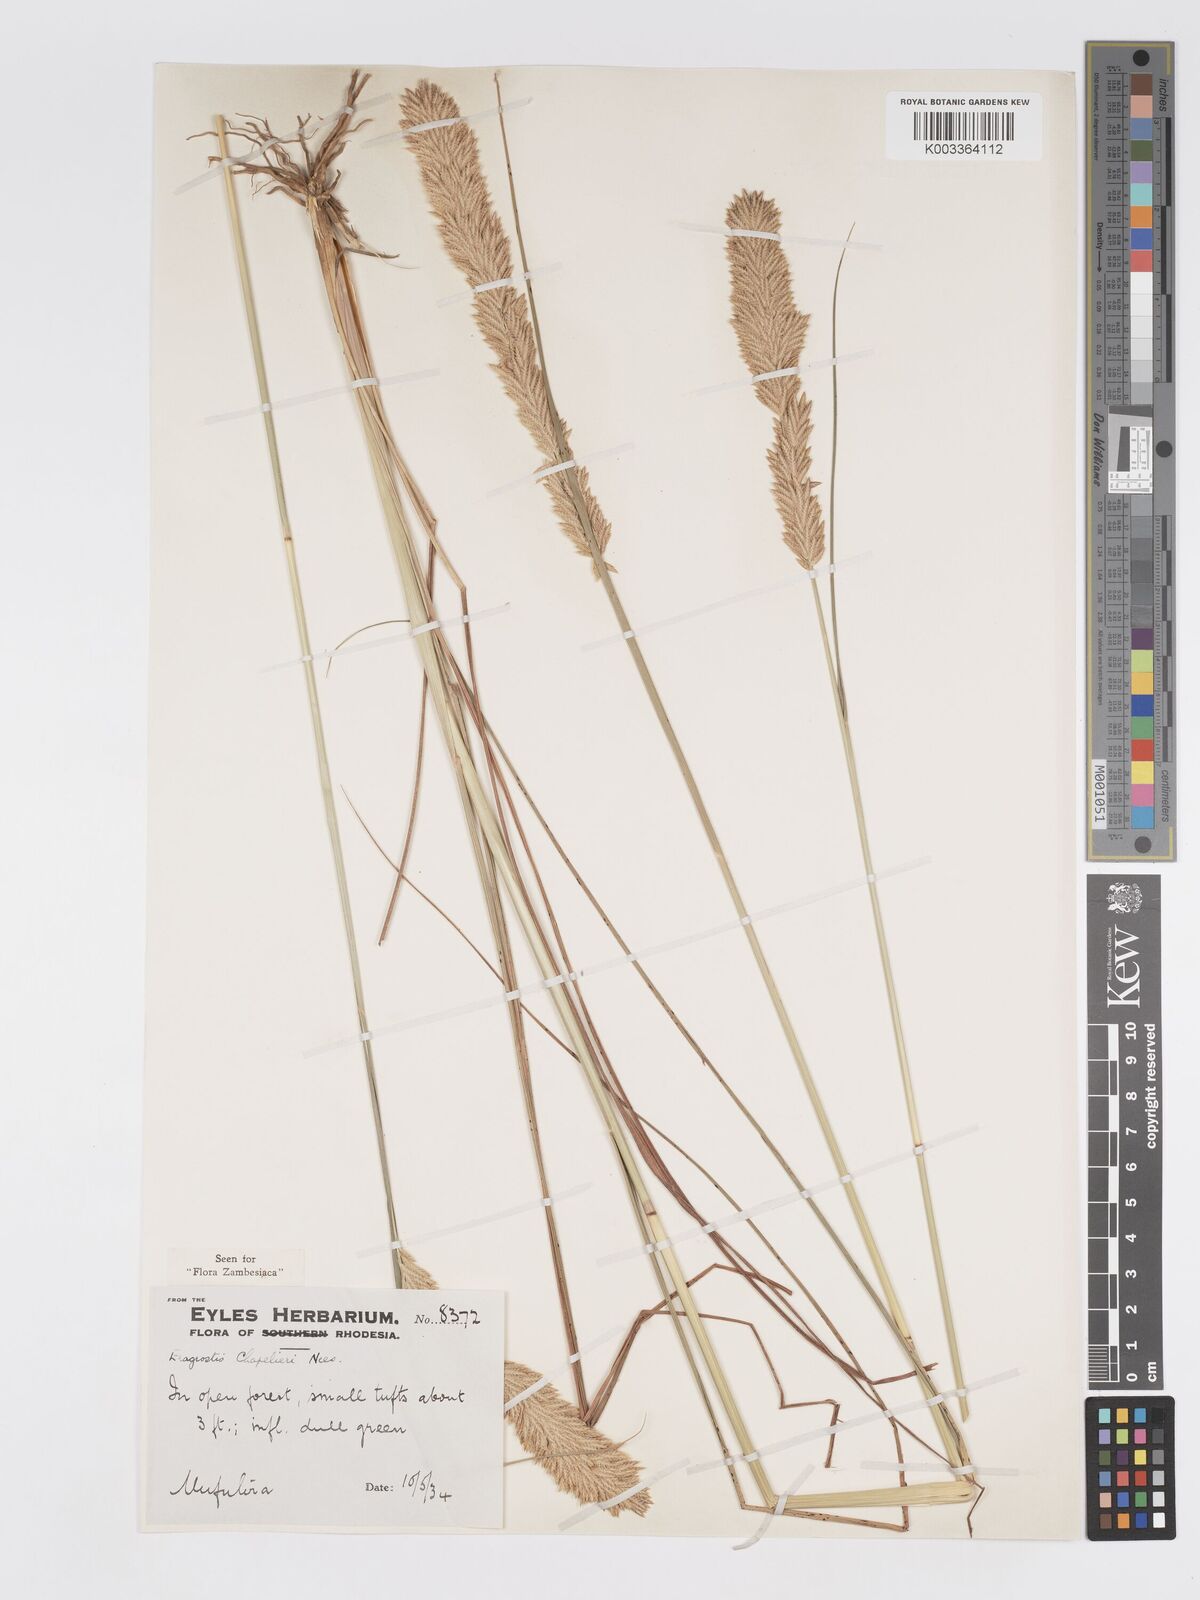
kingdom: Plantae
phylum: Tracheophyta
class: Liliopsida
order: Poales
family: Poaceae
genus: Eragrostis
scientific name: Eragrostis chapelieri
